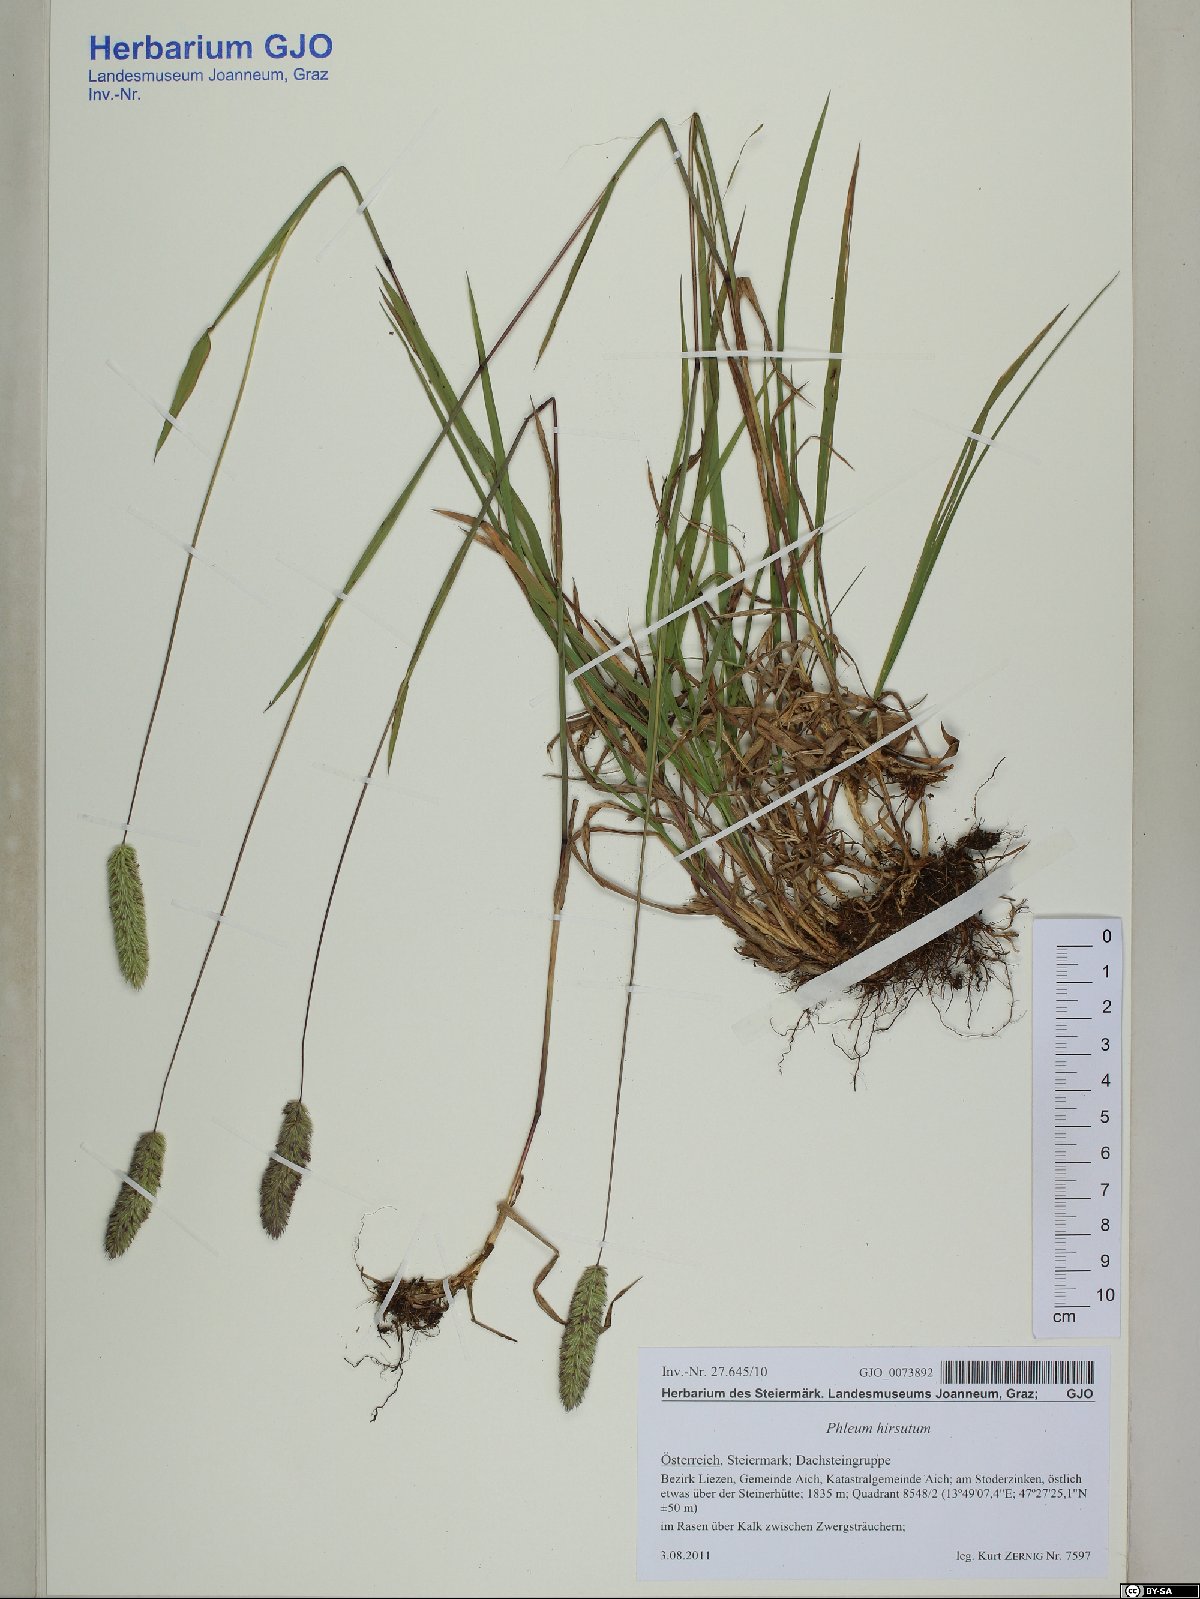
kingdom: Plantae
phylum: Tracheophyta
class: Liliopsida
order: Poales
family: Poaceae
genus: Phleum
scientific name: Phleum hirsutum
